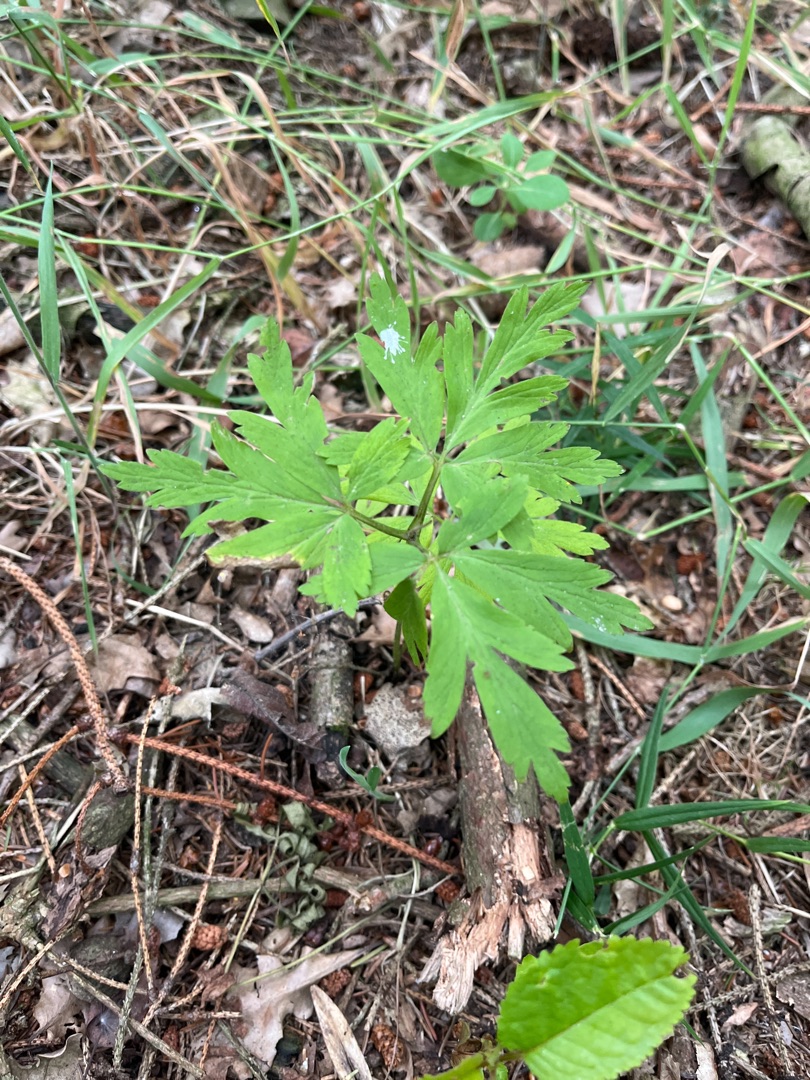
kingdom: Plantae
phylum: Tracheophyta
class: Magnoliopsida
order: Ranunculales
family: Ranunculaceae
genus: Anemone
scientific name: Anemone nemorosa
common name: Hvid anemone
